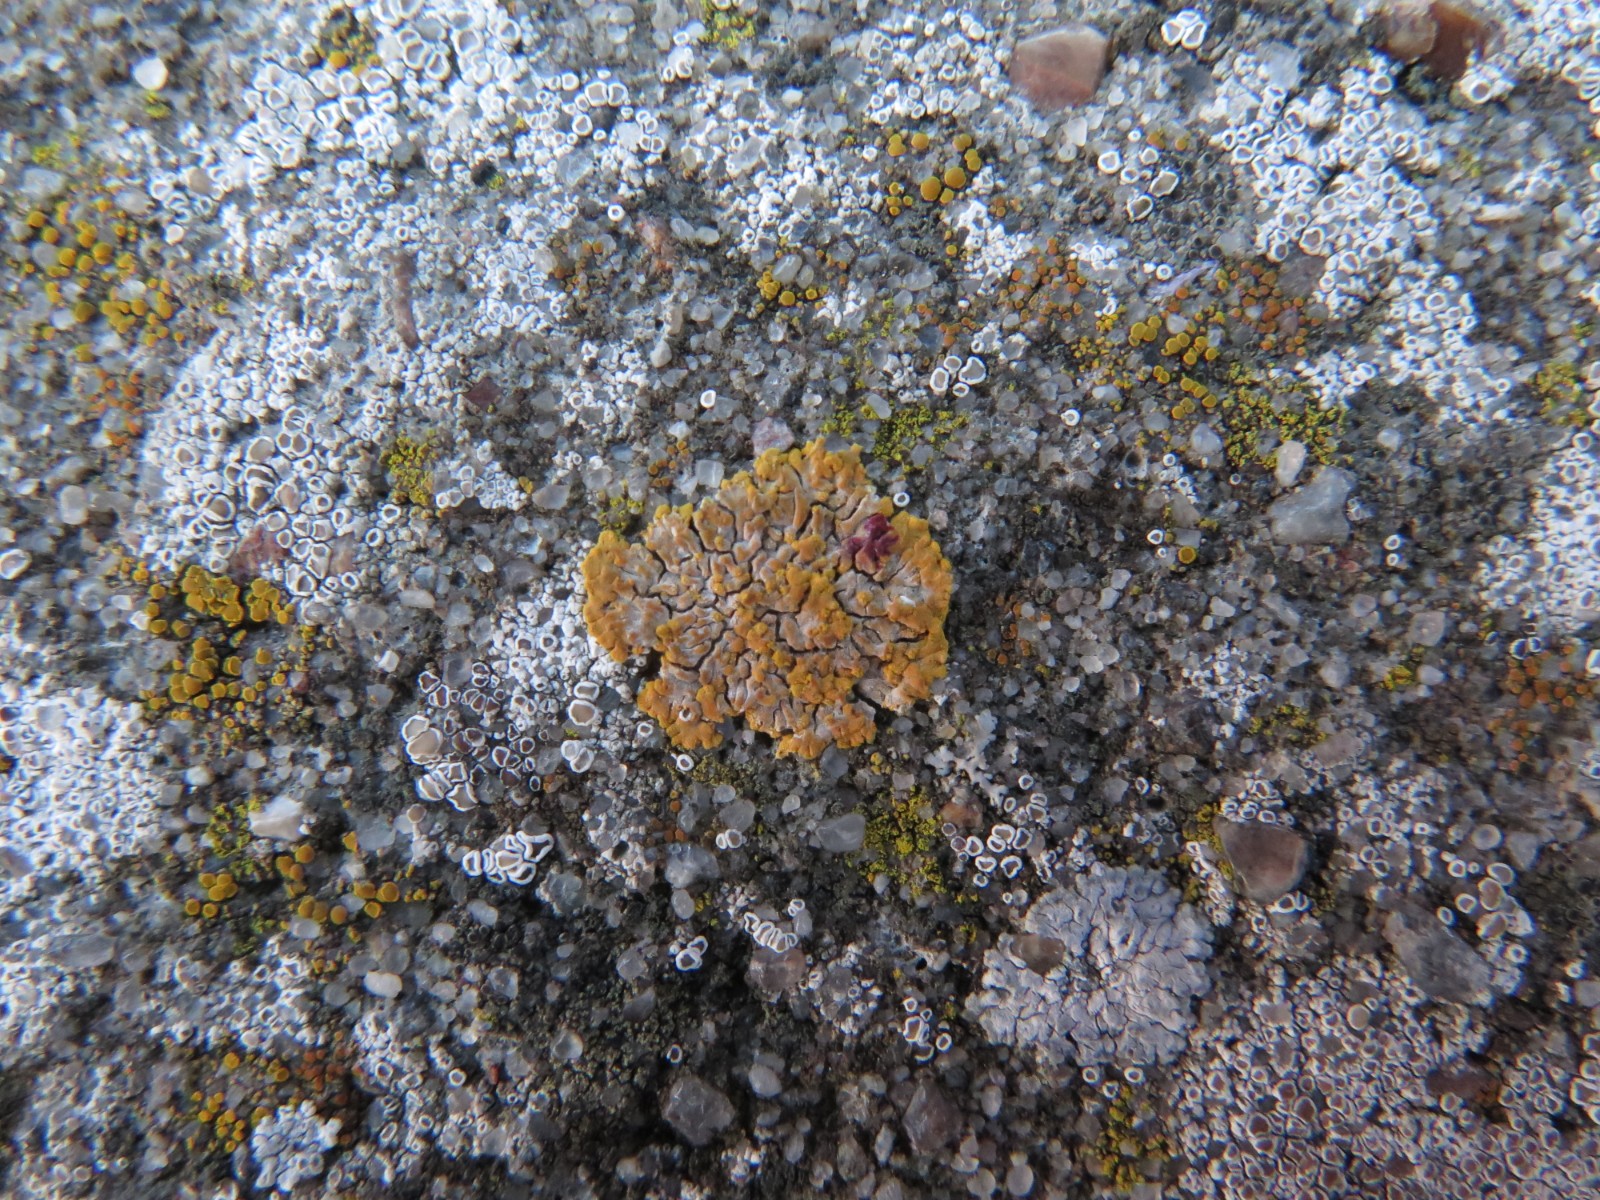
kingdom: Fungi
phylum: Ascomycota
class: Lecanoromycetes
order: Teloschistales
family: Teloschistaceae
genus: Variospora
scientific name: Variospora flavescens
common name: kalk-orangelav
